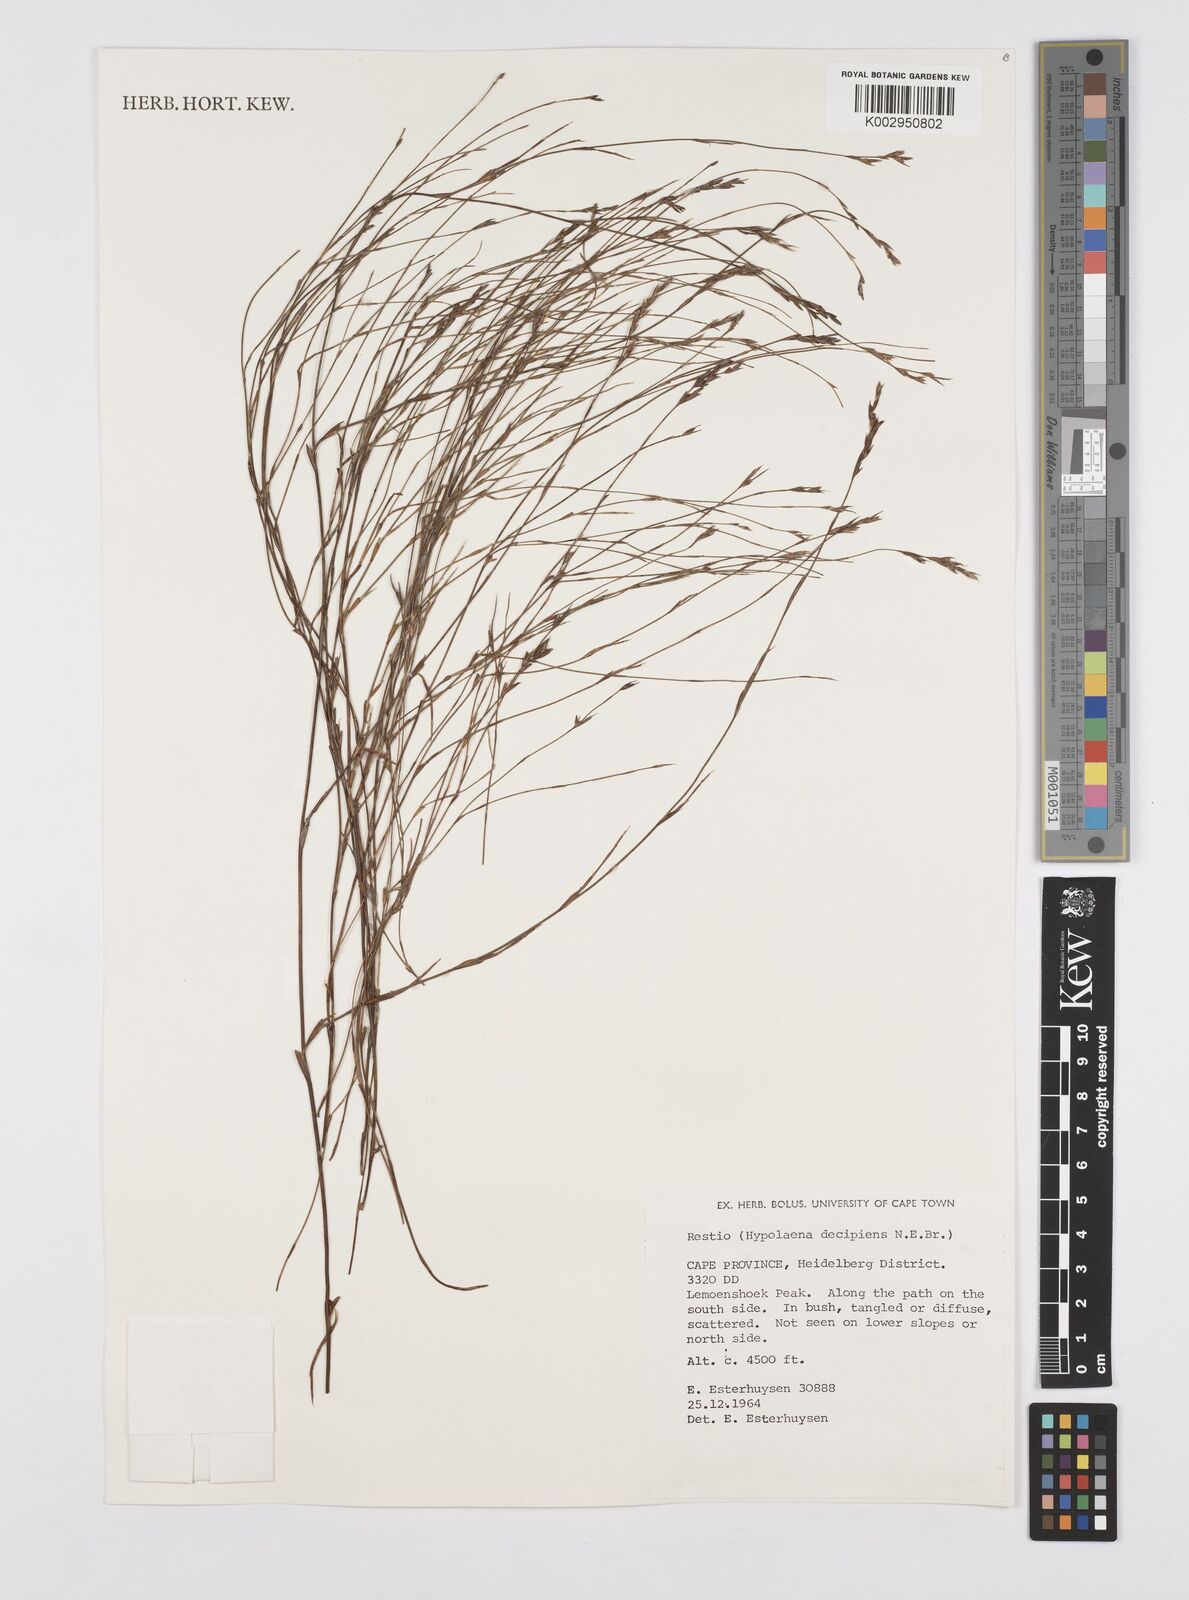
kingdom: Plantae
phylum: Tracheophyta
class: Liliopsida
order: Poales
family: Restionaceae
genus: Restio
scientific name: Restio decipiens
